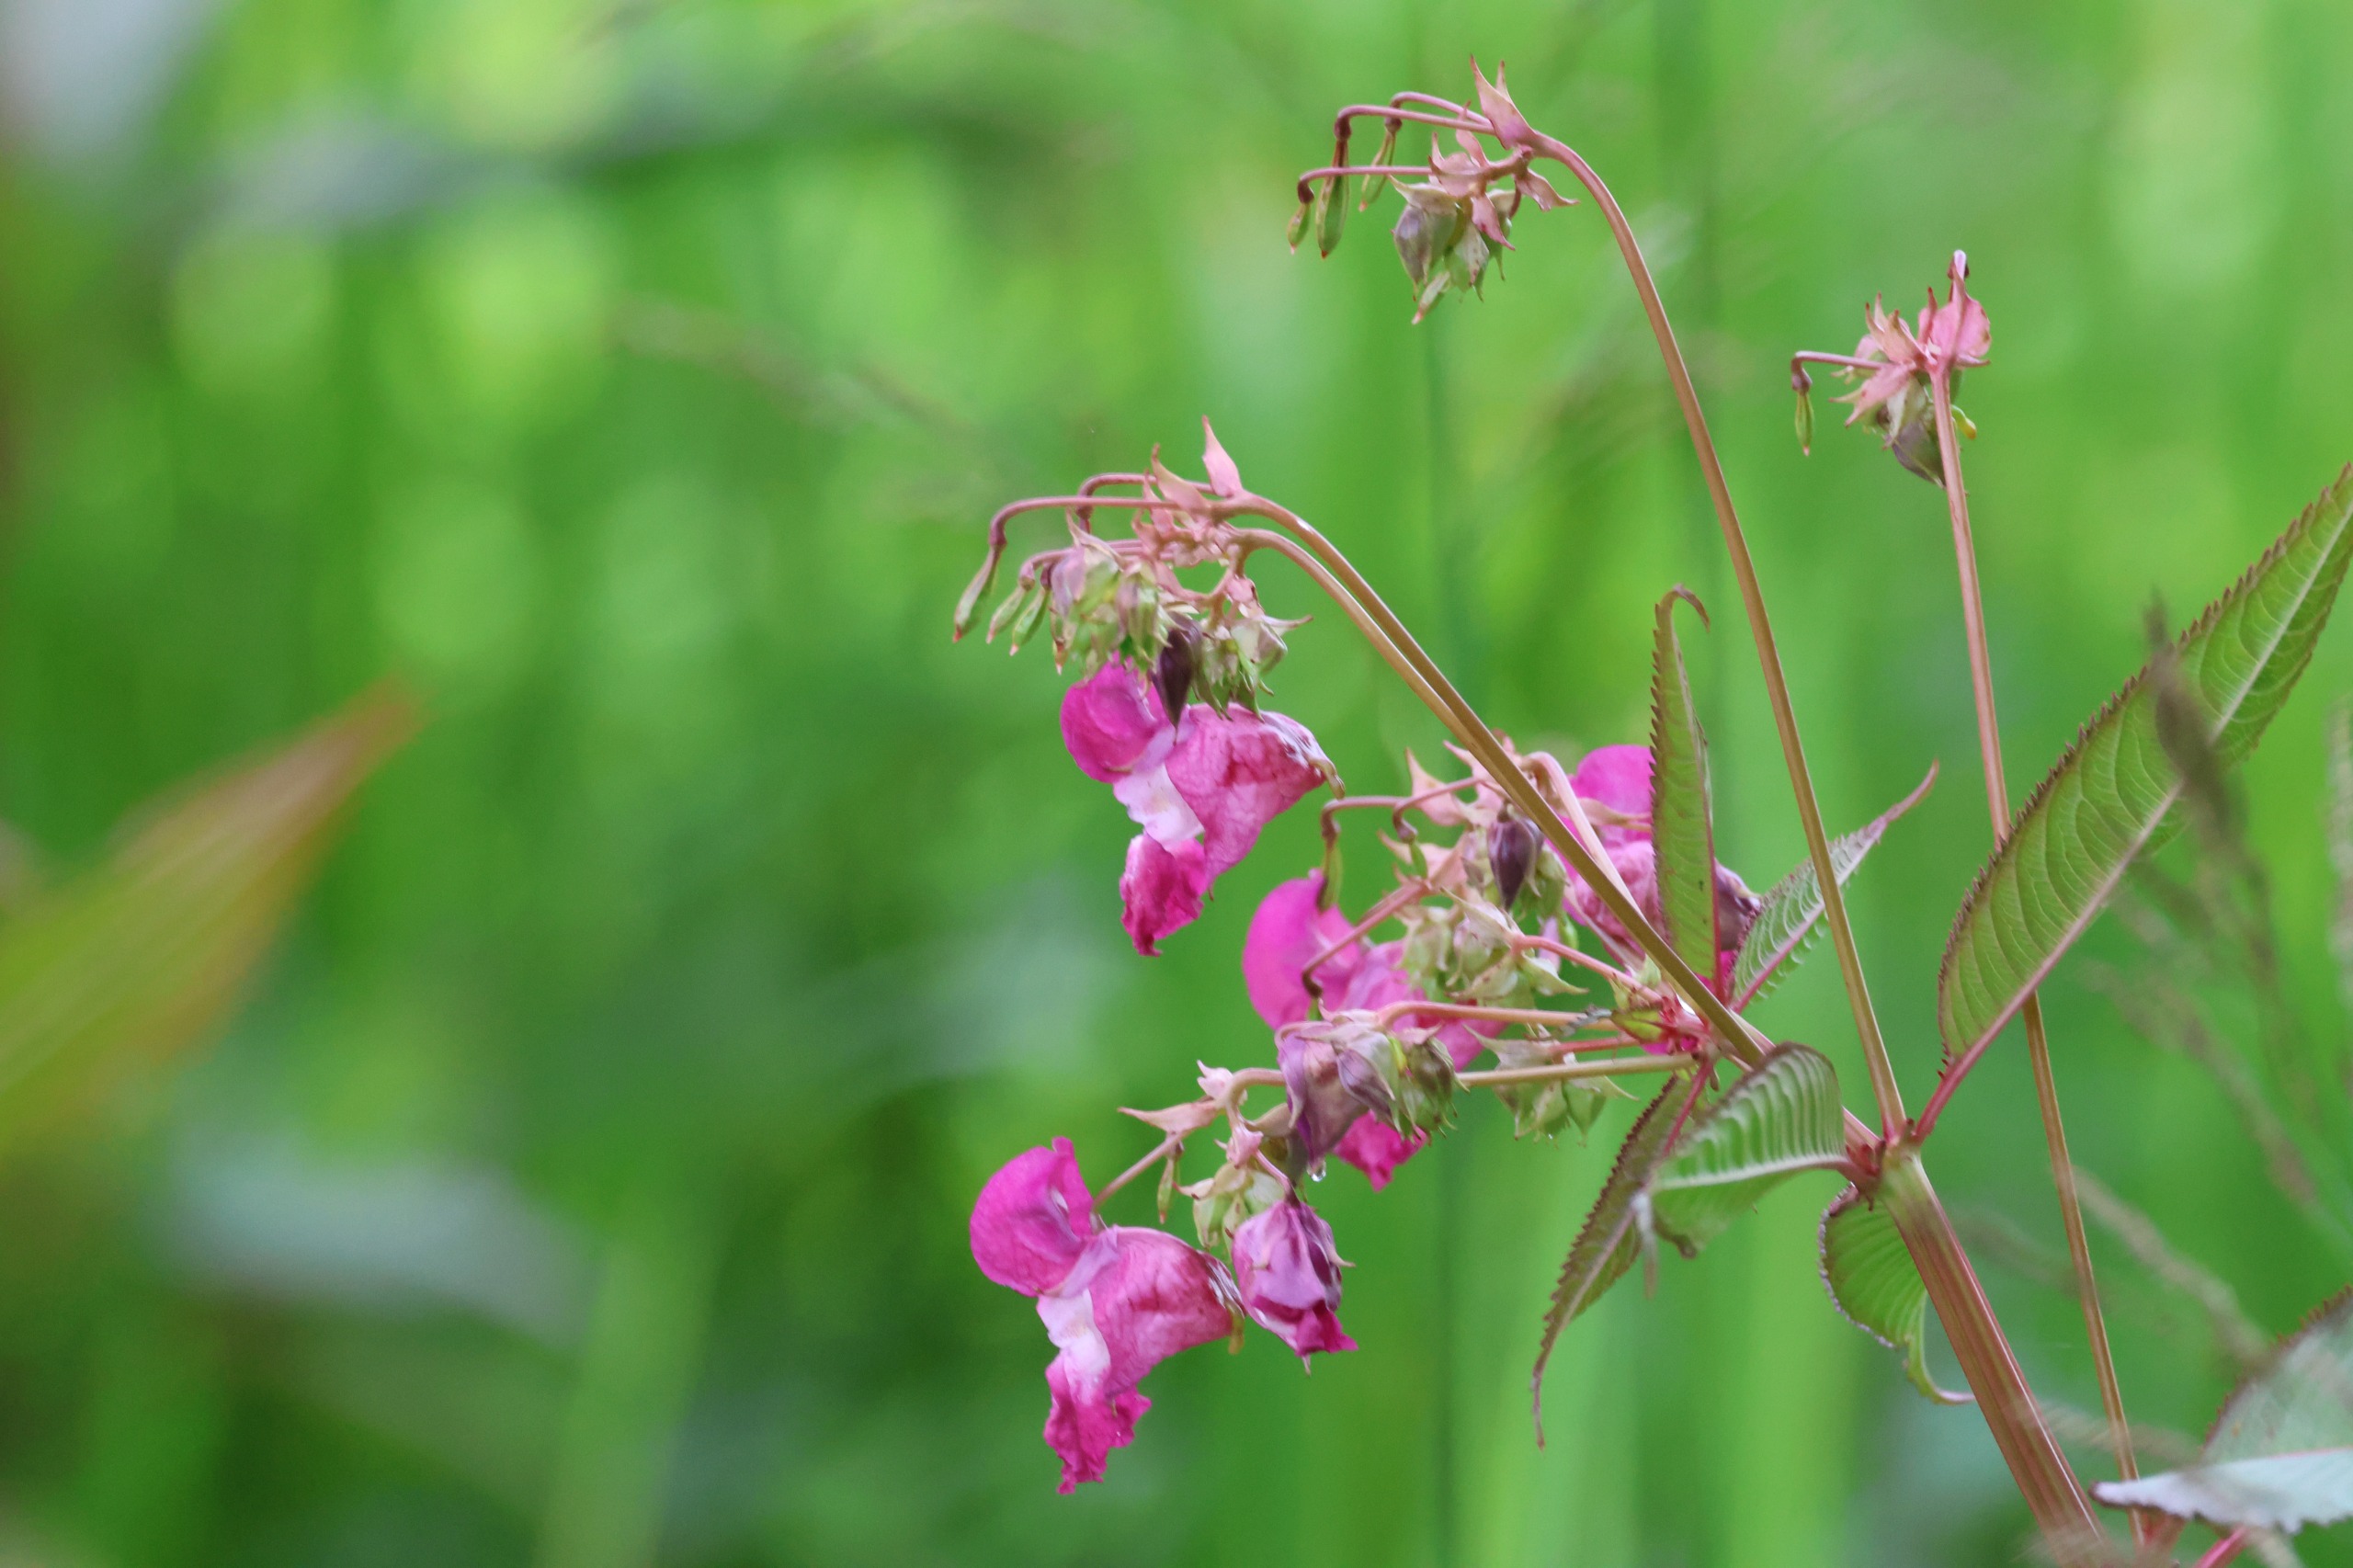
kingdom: Plantae
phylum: Tracheophyta
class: Magnoliopsida
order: Ericales
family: Balsaminaceae
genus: Impatiens
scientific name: Impatiens glandulifera
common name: Kæmpe-balsamin
